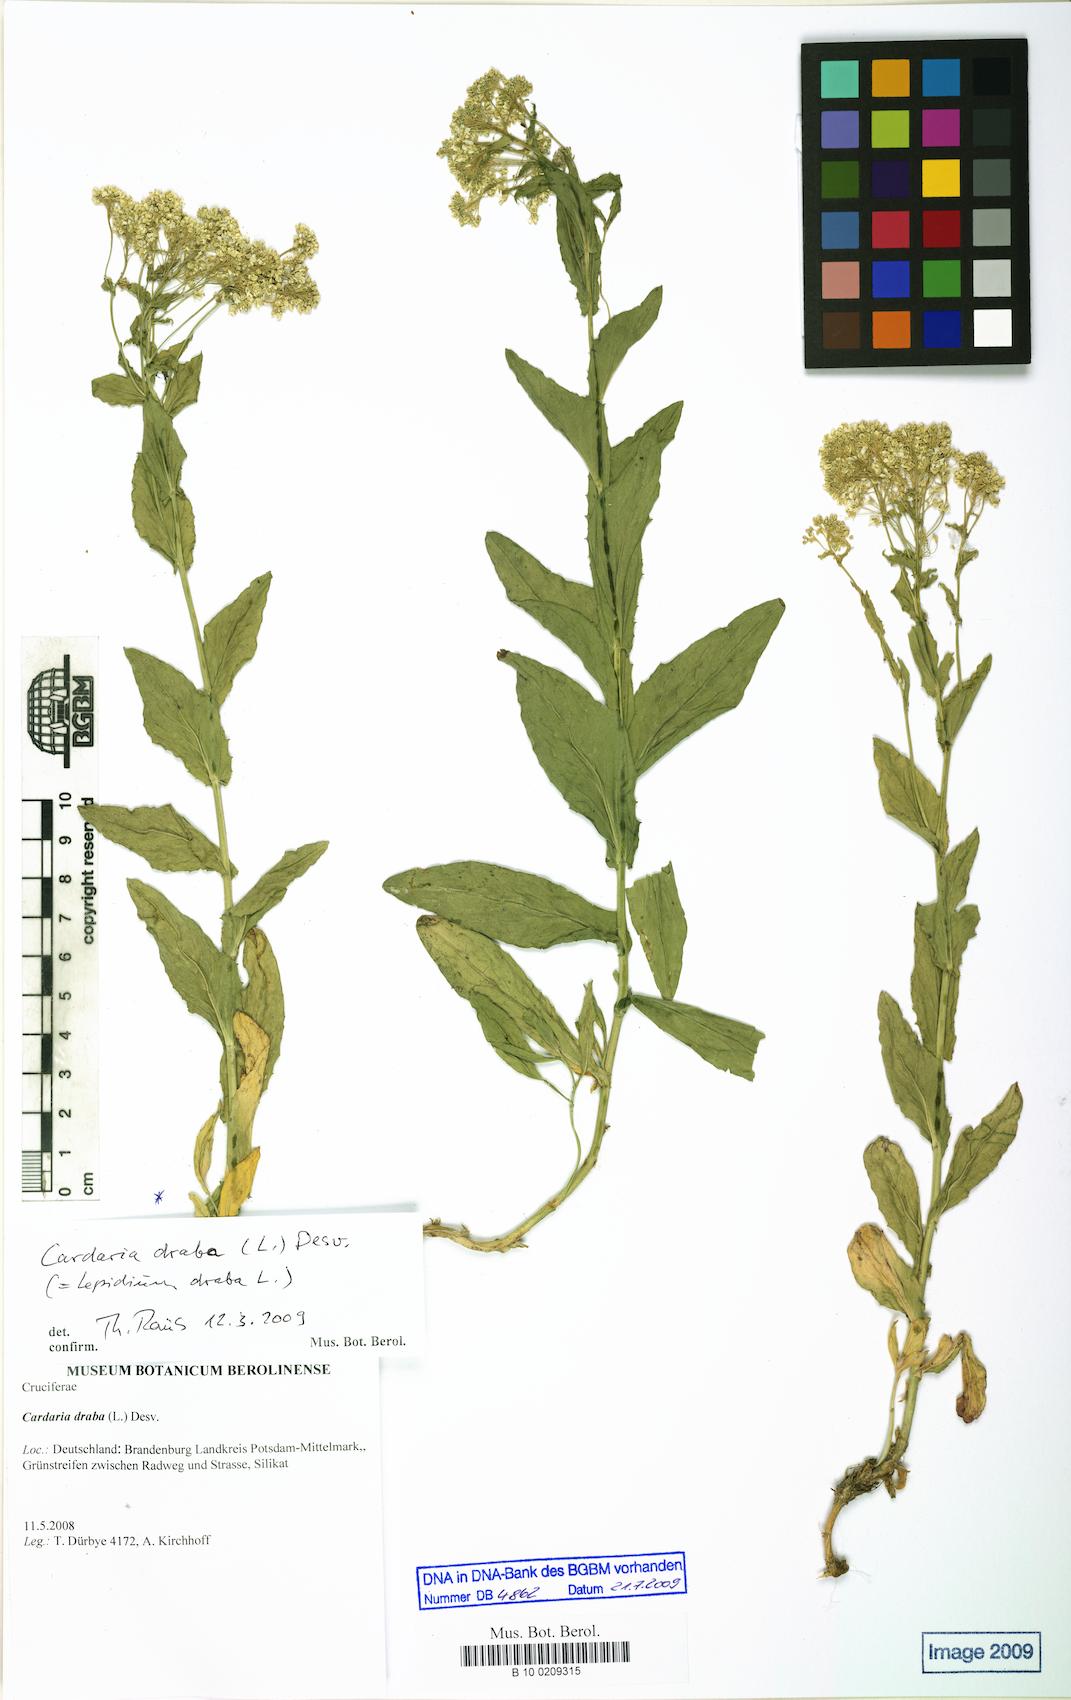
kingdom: Plantae
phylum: Tracheophyta
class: Magnoliopsida
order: Brassicales
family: Brassicaceae
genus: Lepidium
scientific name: Lepidium draba
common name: Hoary cress
